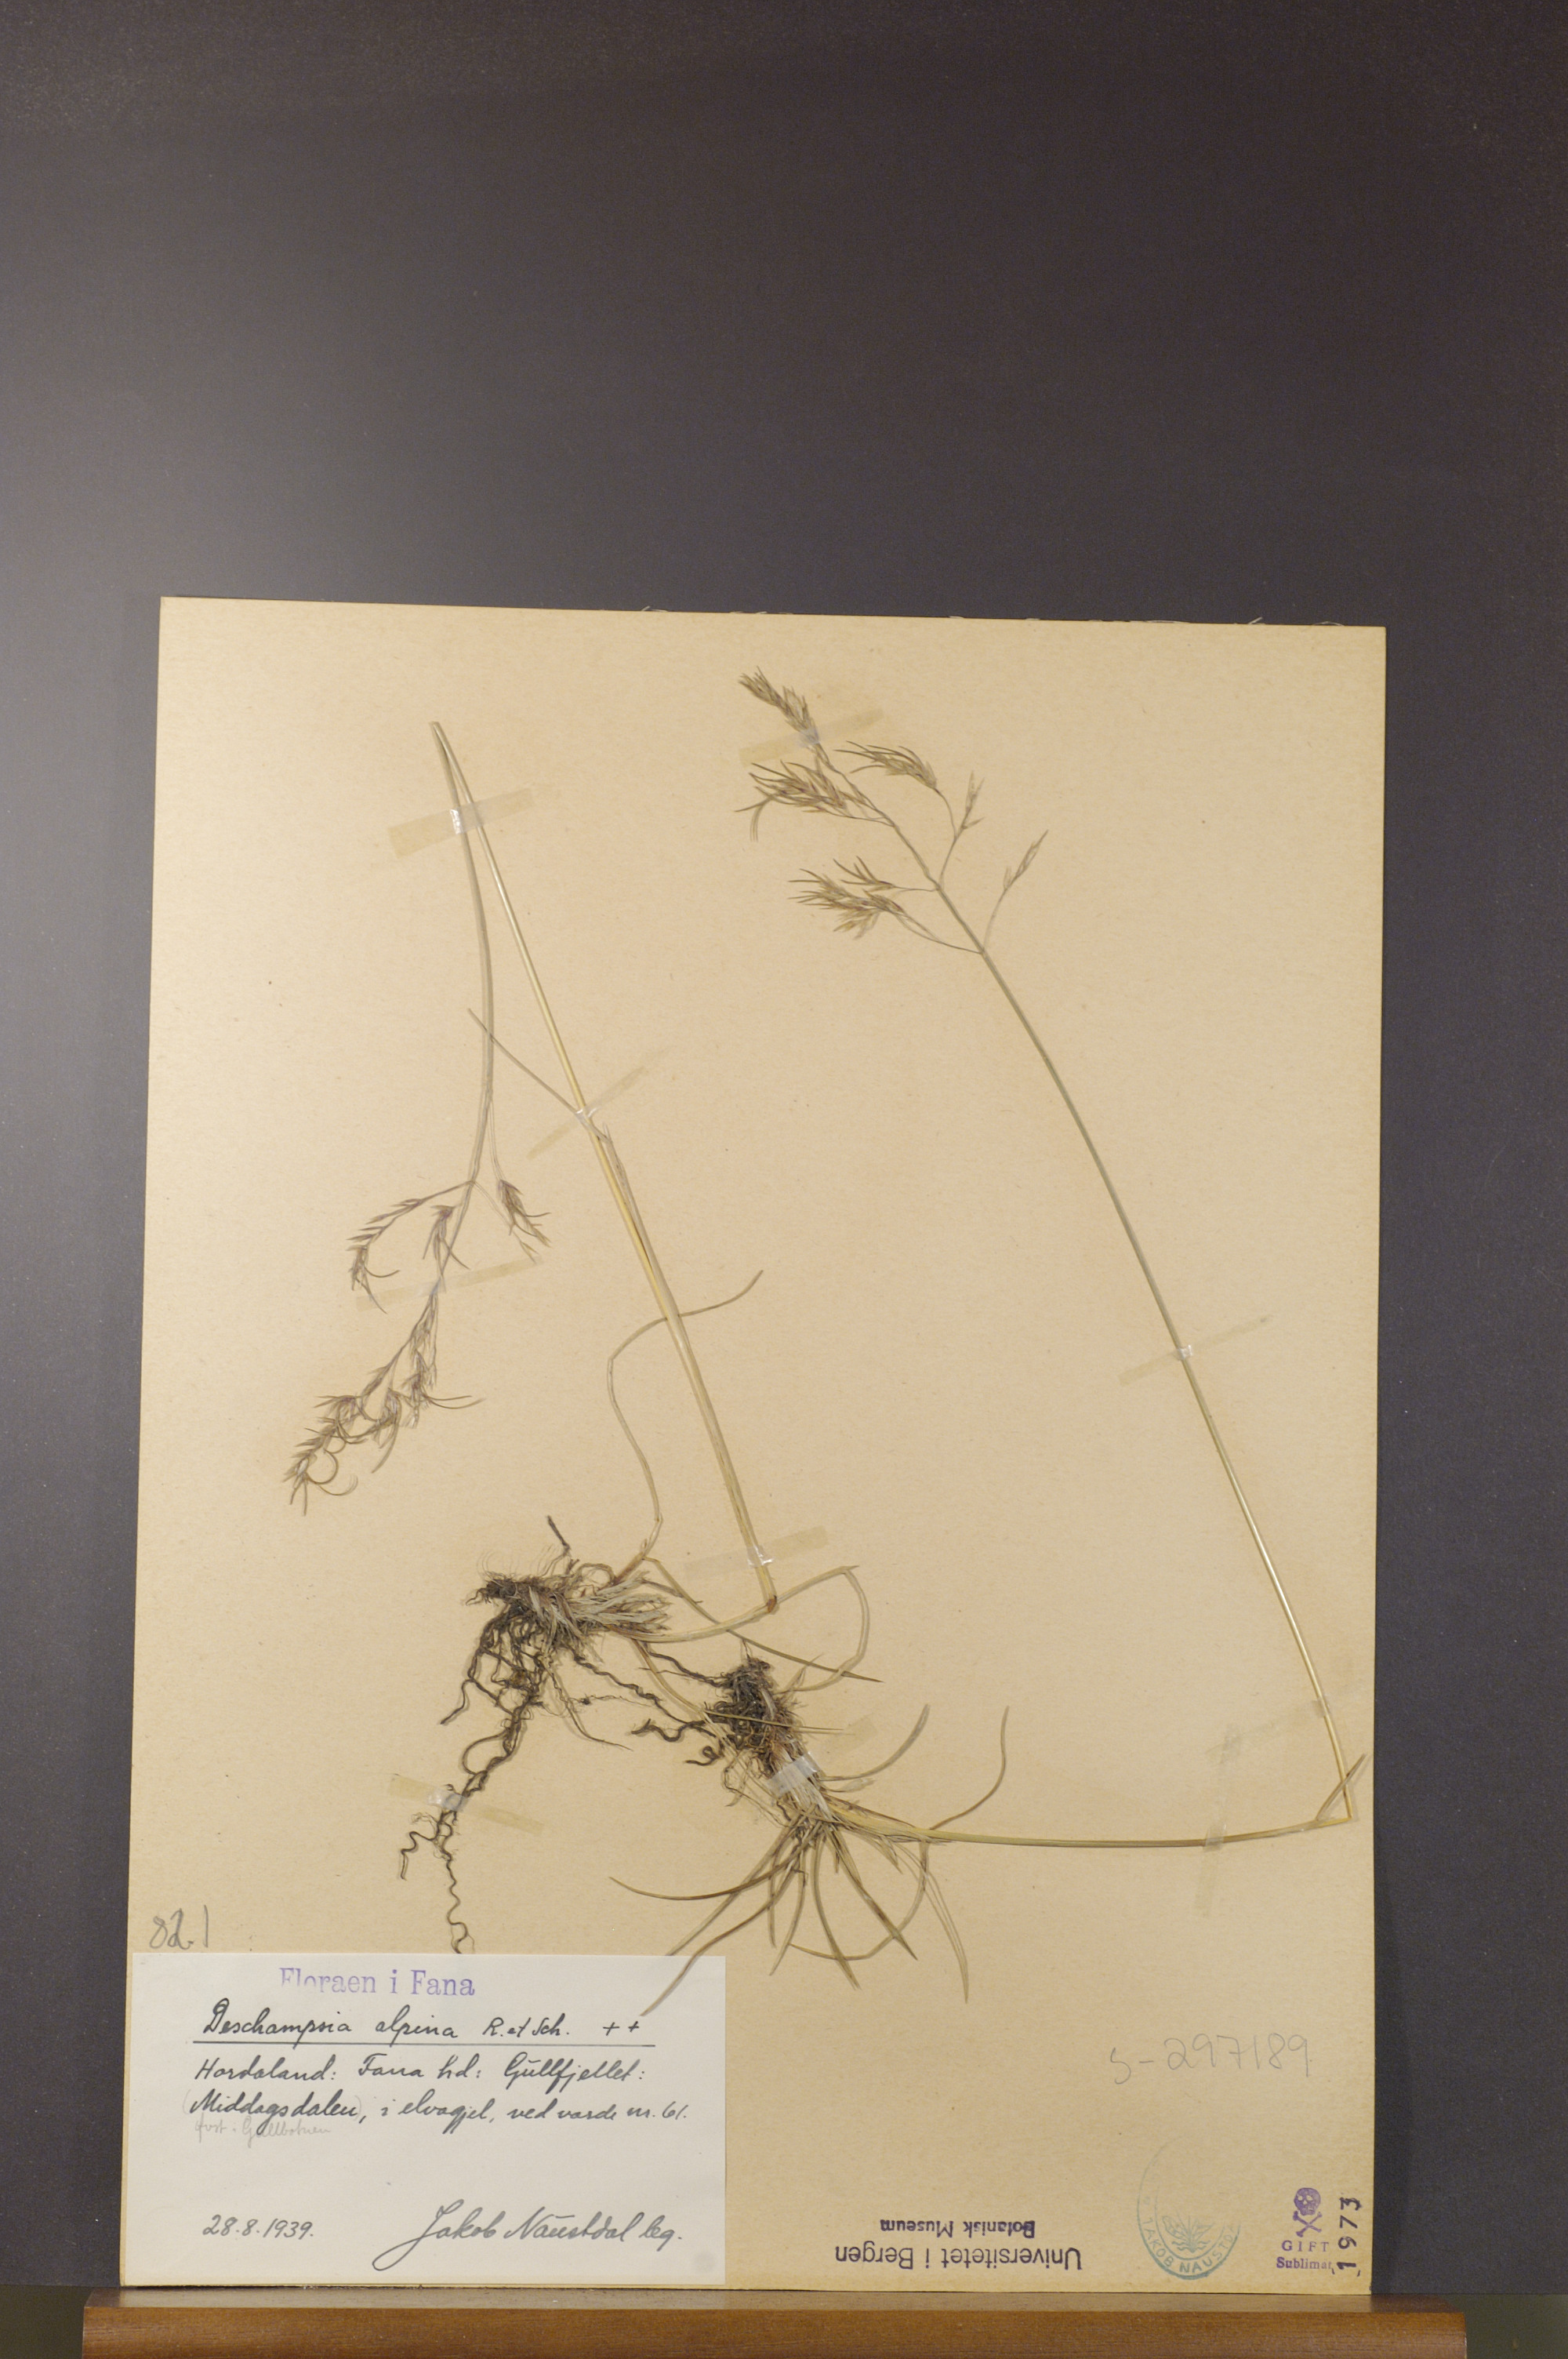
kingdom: Plantae
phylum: Tracheophyta
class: Liliopsida
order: Poales
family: Poaceae
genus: Deschampsia
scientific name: Deschampsia cespitosa
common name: Tufted hair-grass
